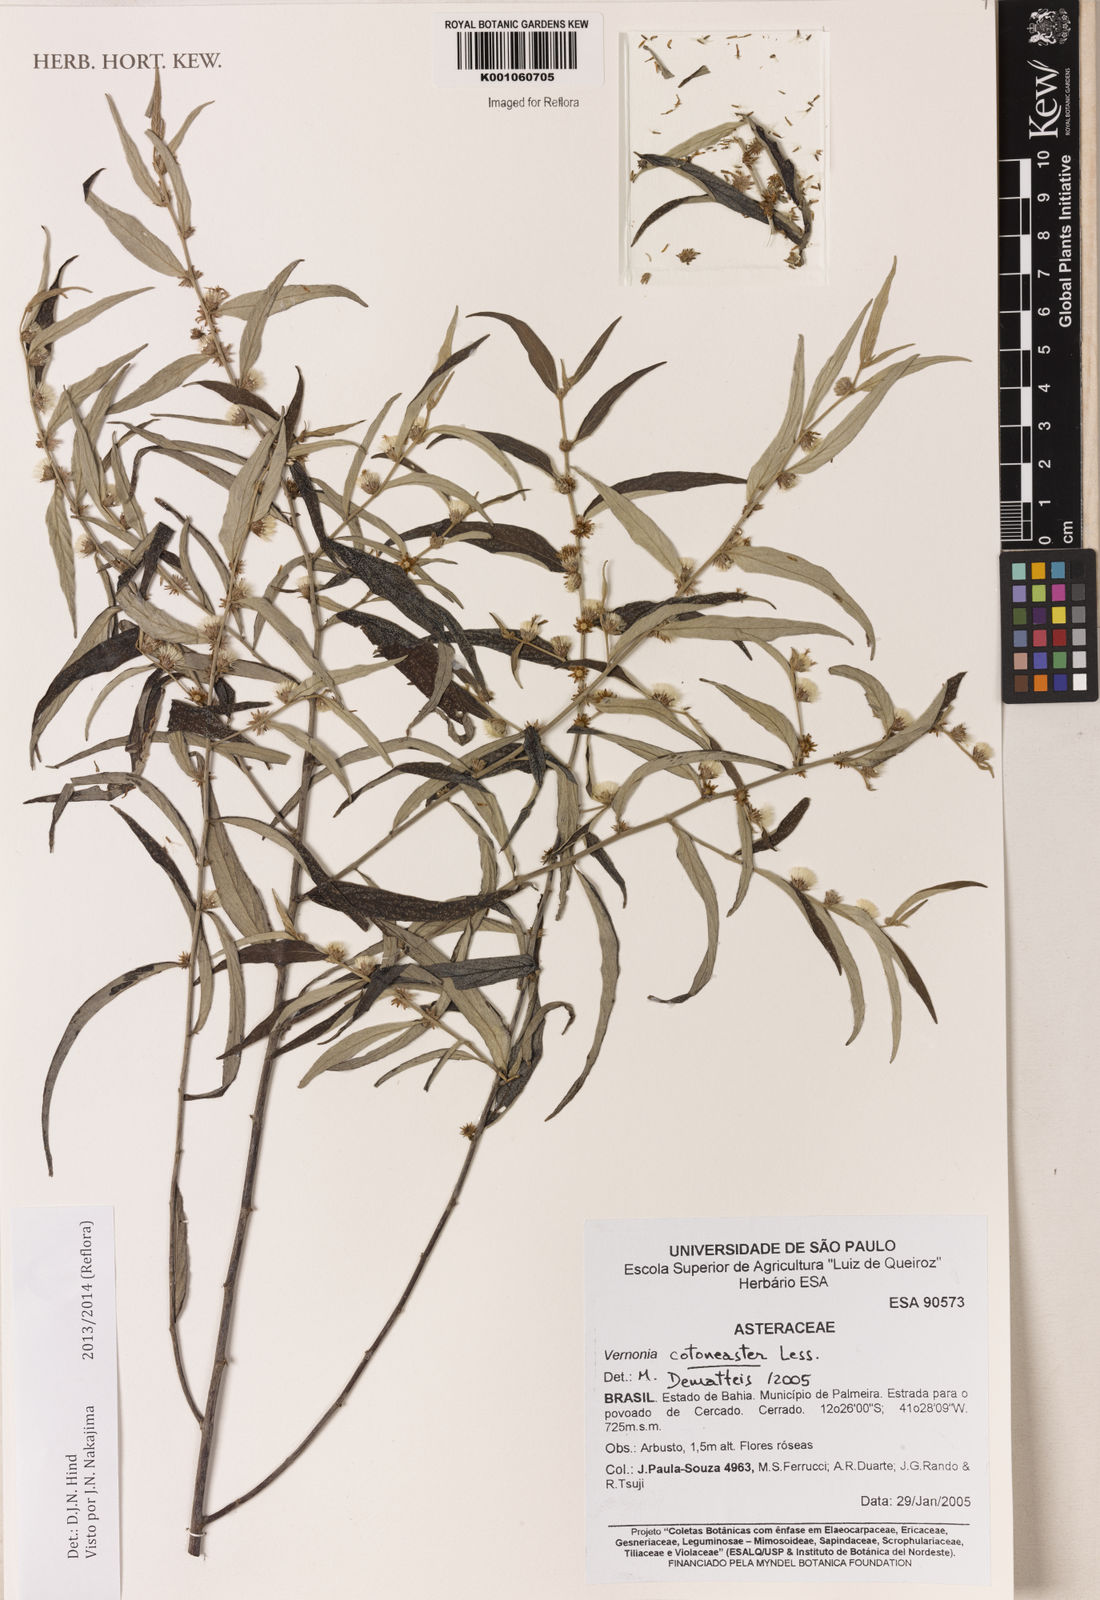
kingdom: Plantae
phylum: Tracheophyta
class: Magnoliopsida
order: Asterales
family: Asteraceae
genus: Lepidaploa
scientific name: Lepidaploa cotoneaster
